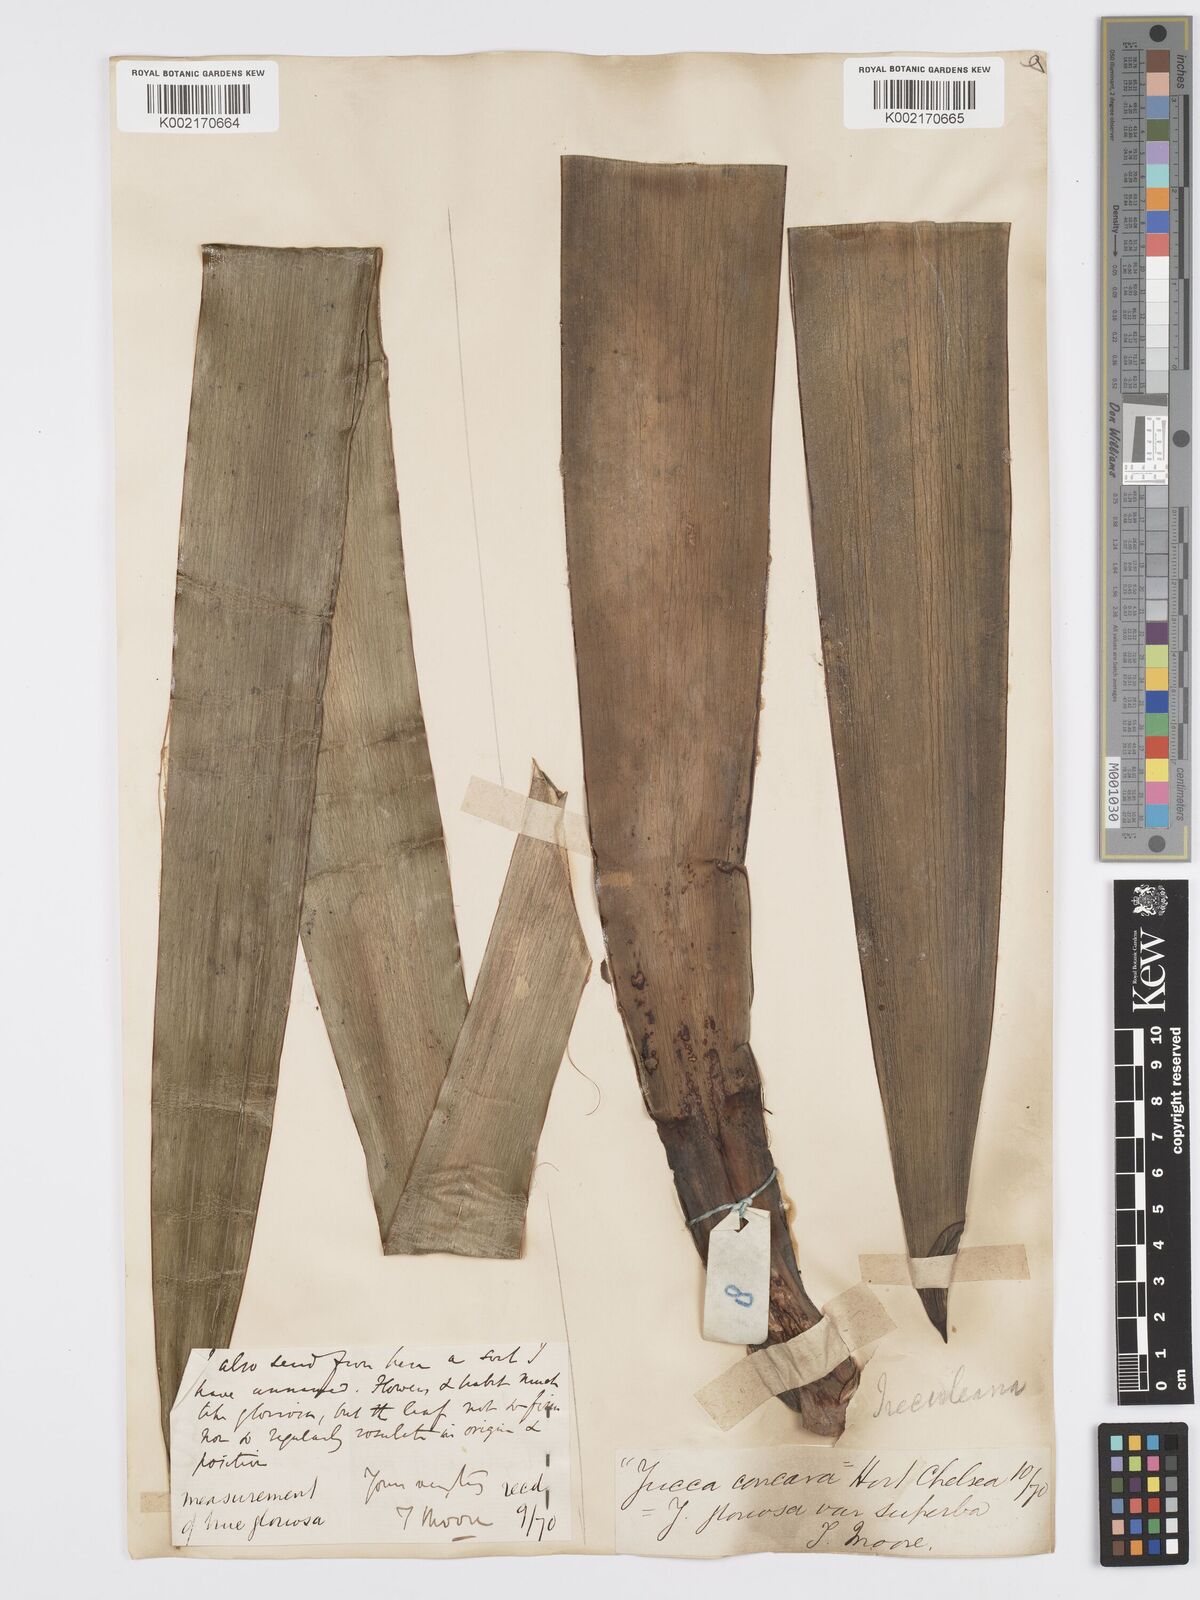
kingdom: Plantae
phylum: Tracheophyta
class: Liliopsida
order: Asparagales
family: Asparagaceae
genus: Yucca
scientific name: Yucca gloriosa
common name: Spanish-dagger
